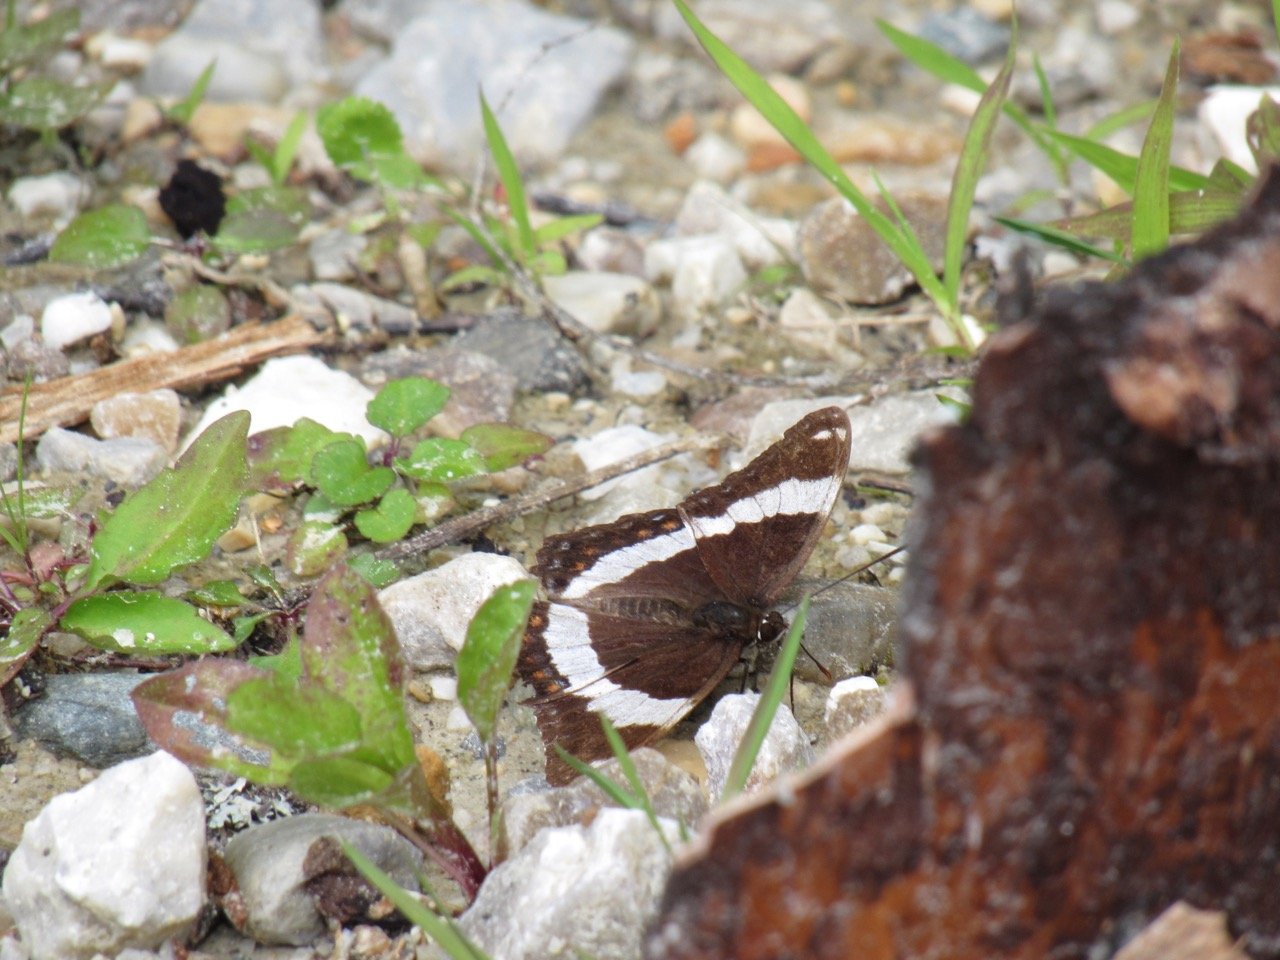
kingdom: Animalia
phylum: Arthropoda
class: Insecta
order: Lepidoptera
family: Nymphalidae
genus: Limenitis
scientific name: Limenitis arthemis
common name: Red-spotted Admiral
